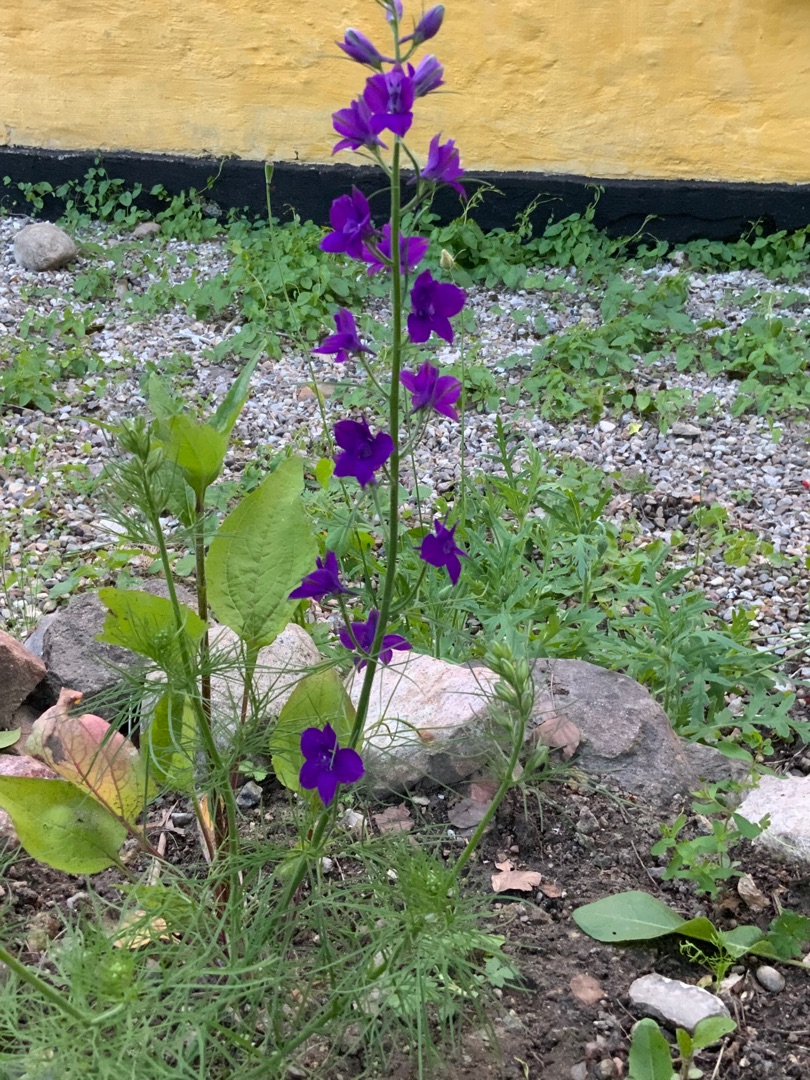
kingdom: Plantae
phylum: Tracheophyta
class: Magnoliopsida
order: Ranunculales
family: Ranunculaceae
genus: Delphinium
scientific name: Delphinium ajacis
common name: Hyacint-ridderspore
